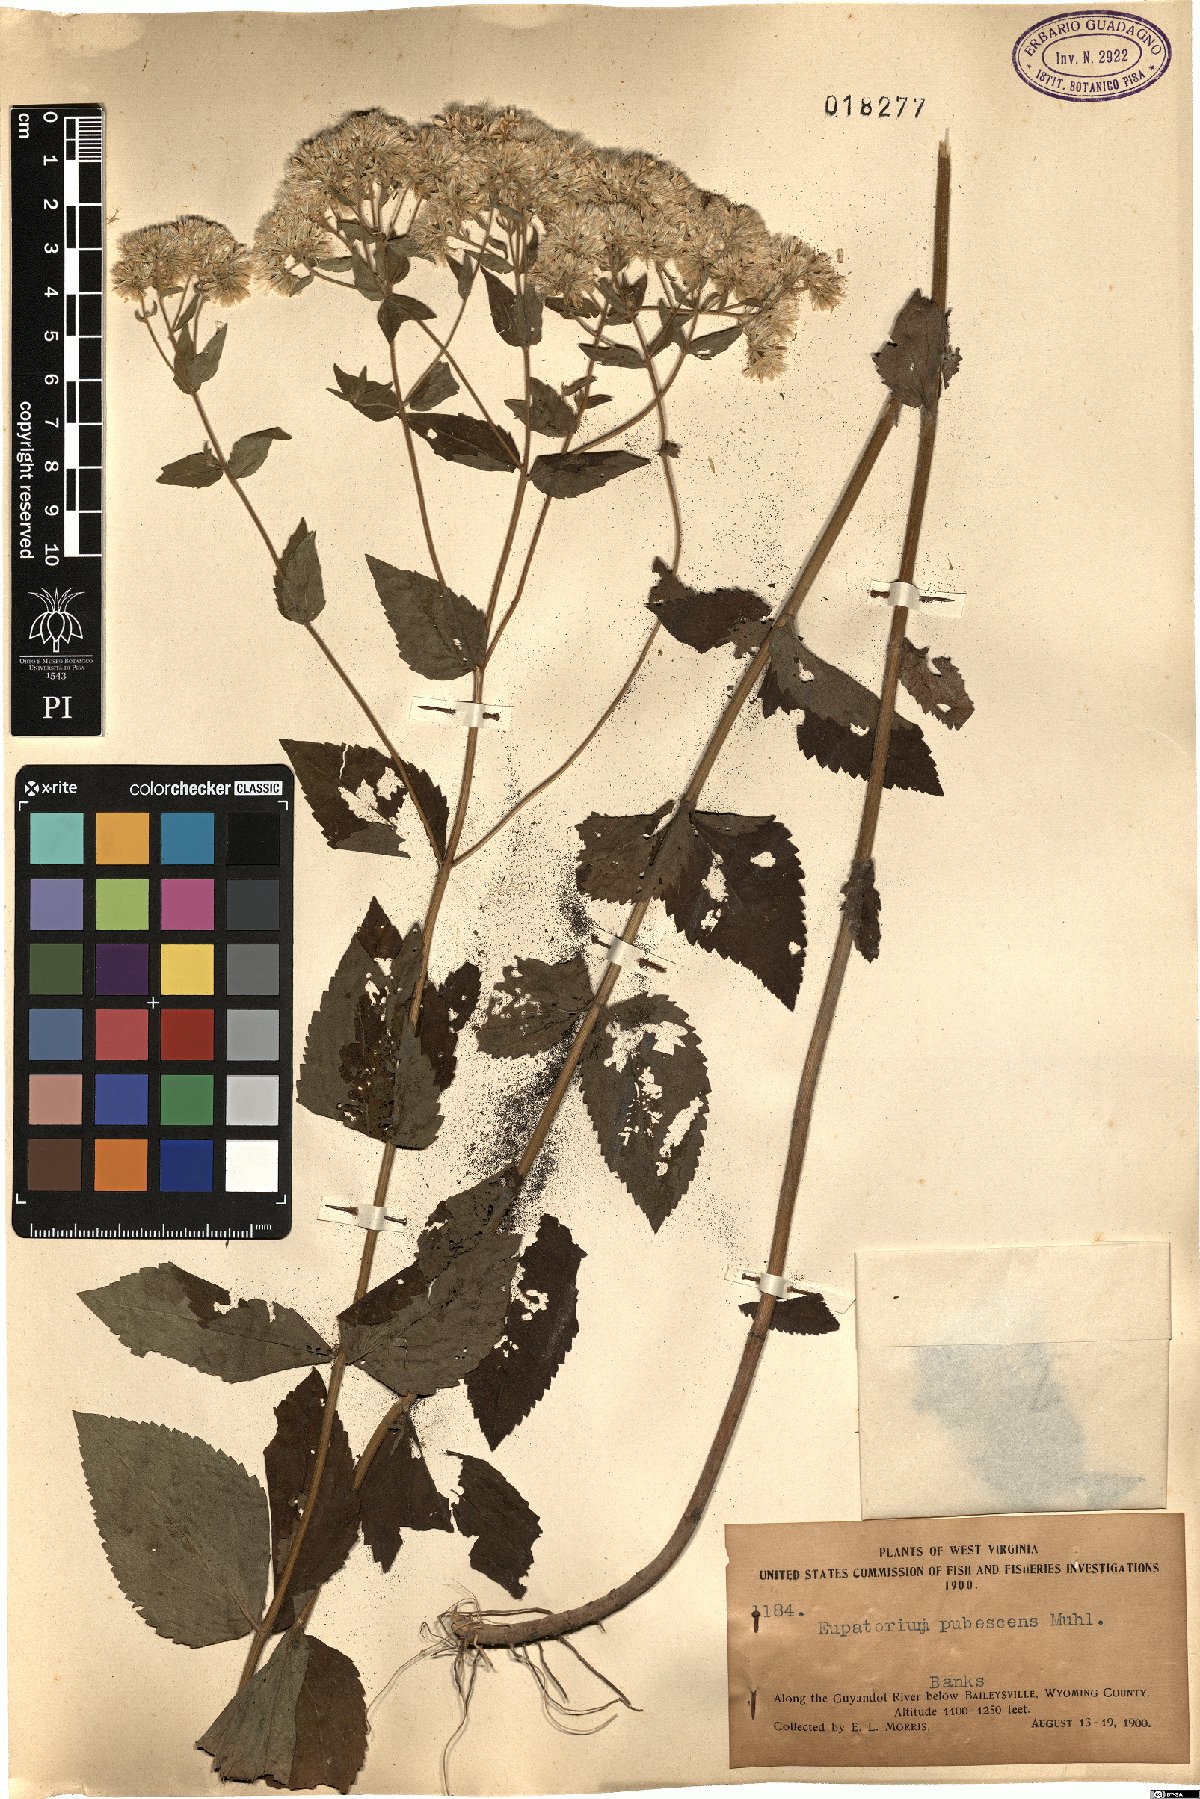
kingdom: Plantae
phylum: Tracheophyta
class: Magnoliopsida
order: Asterales
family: Asteraceae
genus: Eupatorium
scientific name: Eupatorium pubescens
